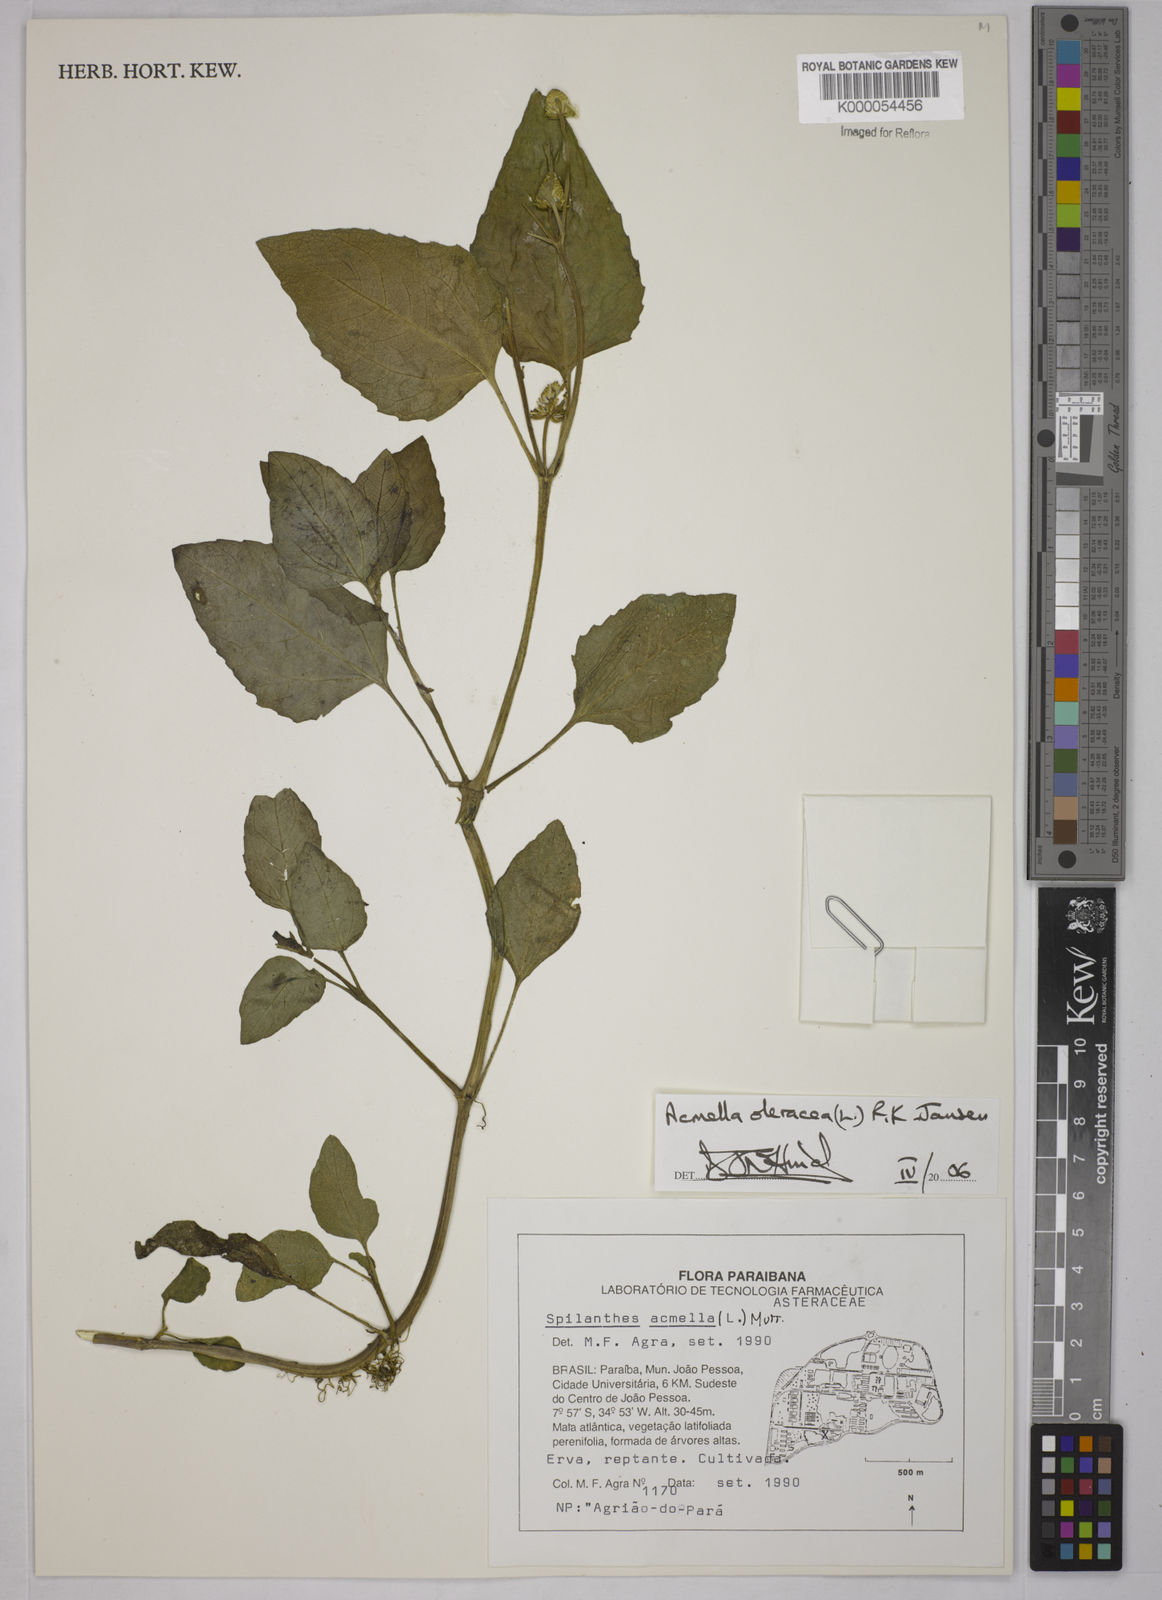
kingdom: Plantae
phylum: Tracheophyta
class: Magnoliopsida
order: Asterales
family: Asteraceae
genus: Acmella
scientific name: Acmella oleracea
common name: Brazilian cress
